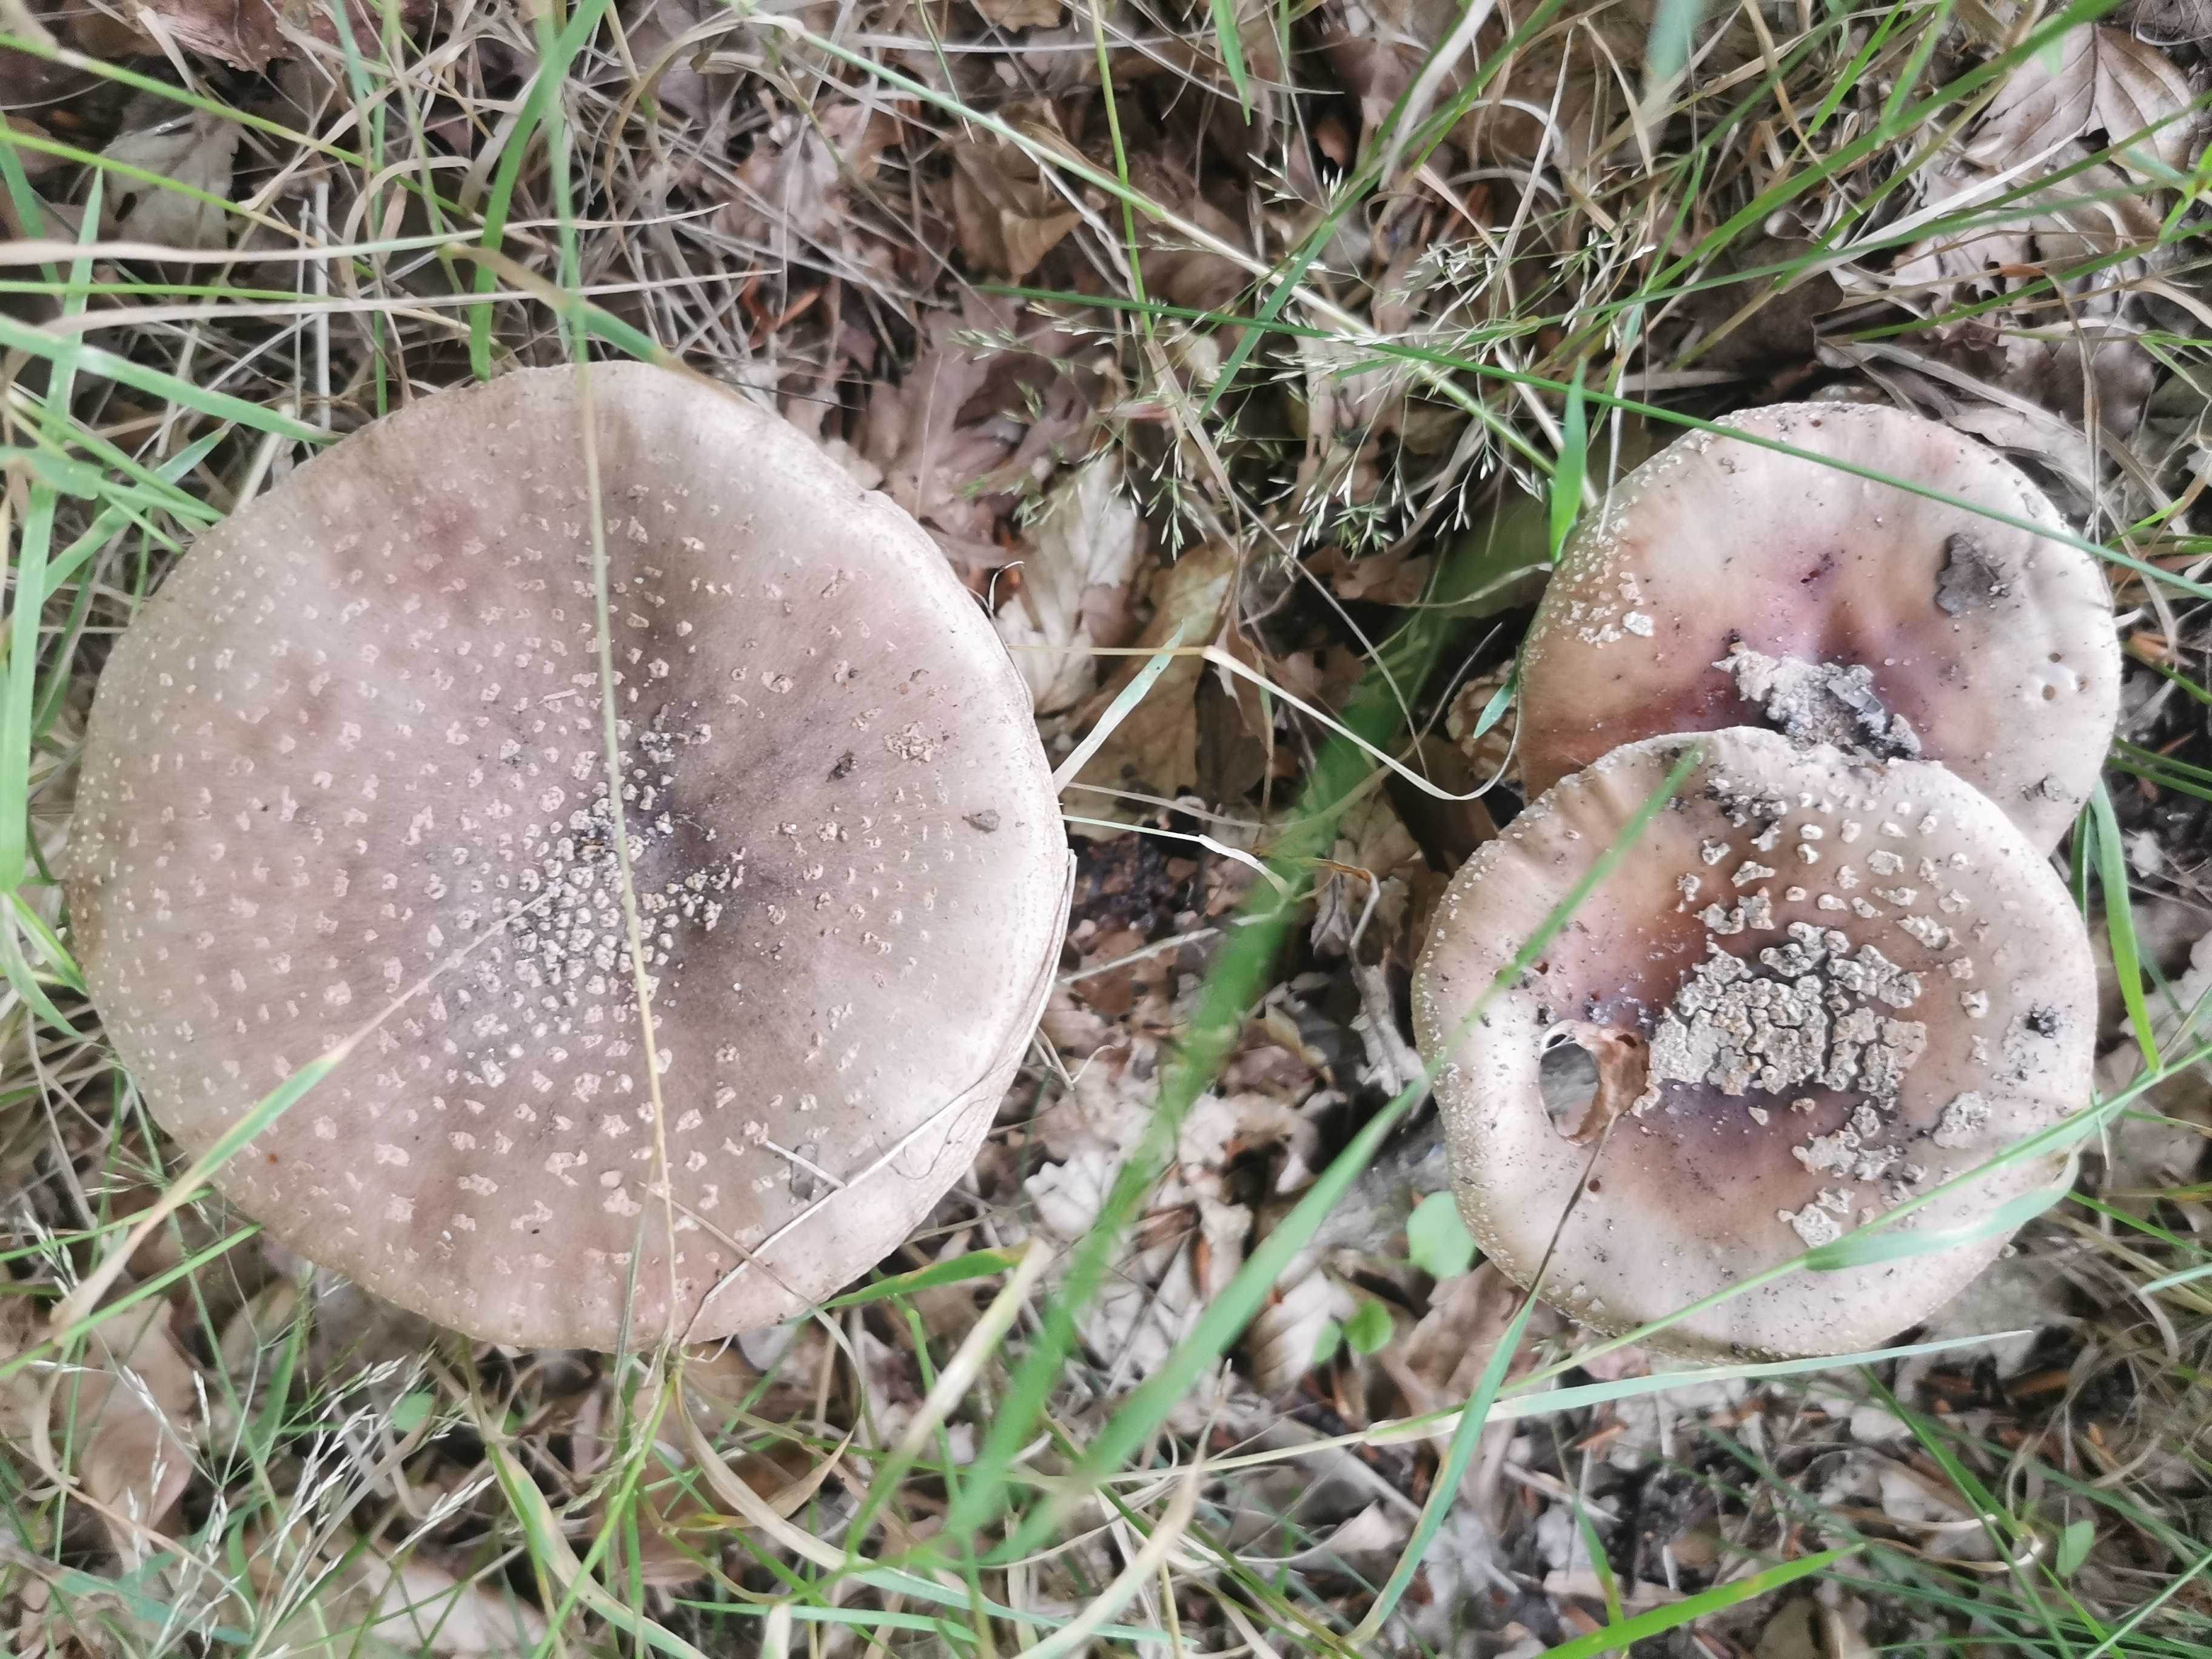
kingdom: Fungi
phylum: Basidiomycota
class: Agaricomycetes
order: Agaricales
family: Amanitaceae
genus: Amanita
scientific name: Amanita rubescens
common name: rødmende fluesvamp
